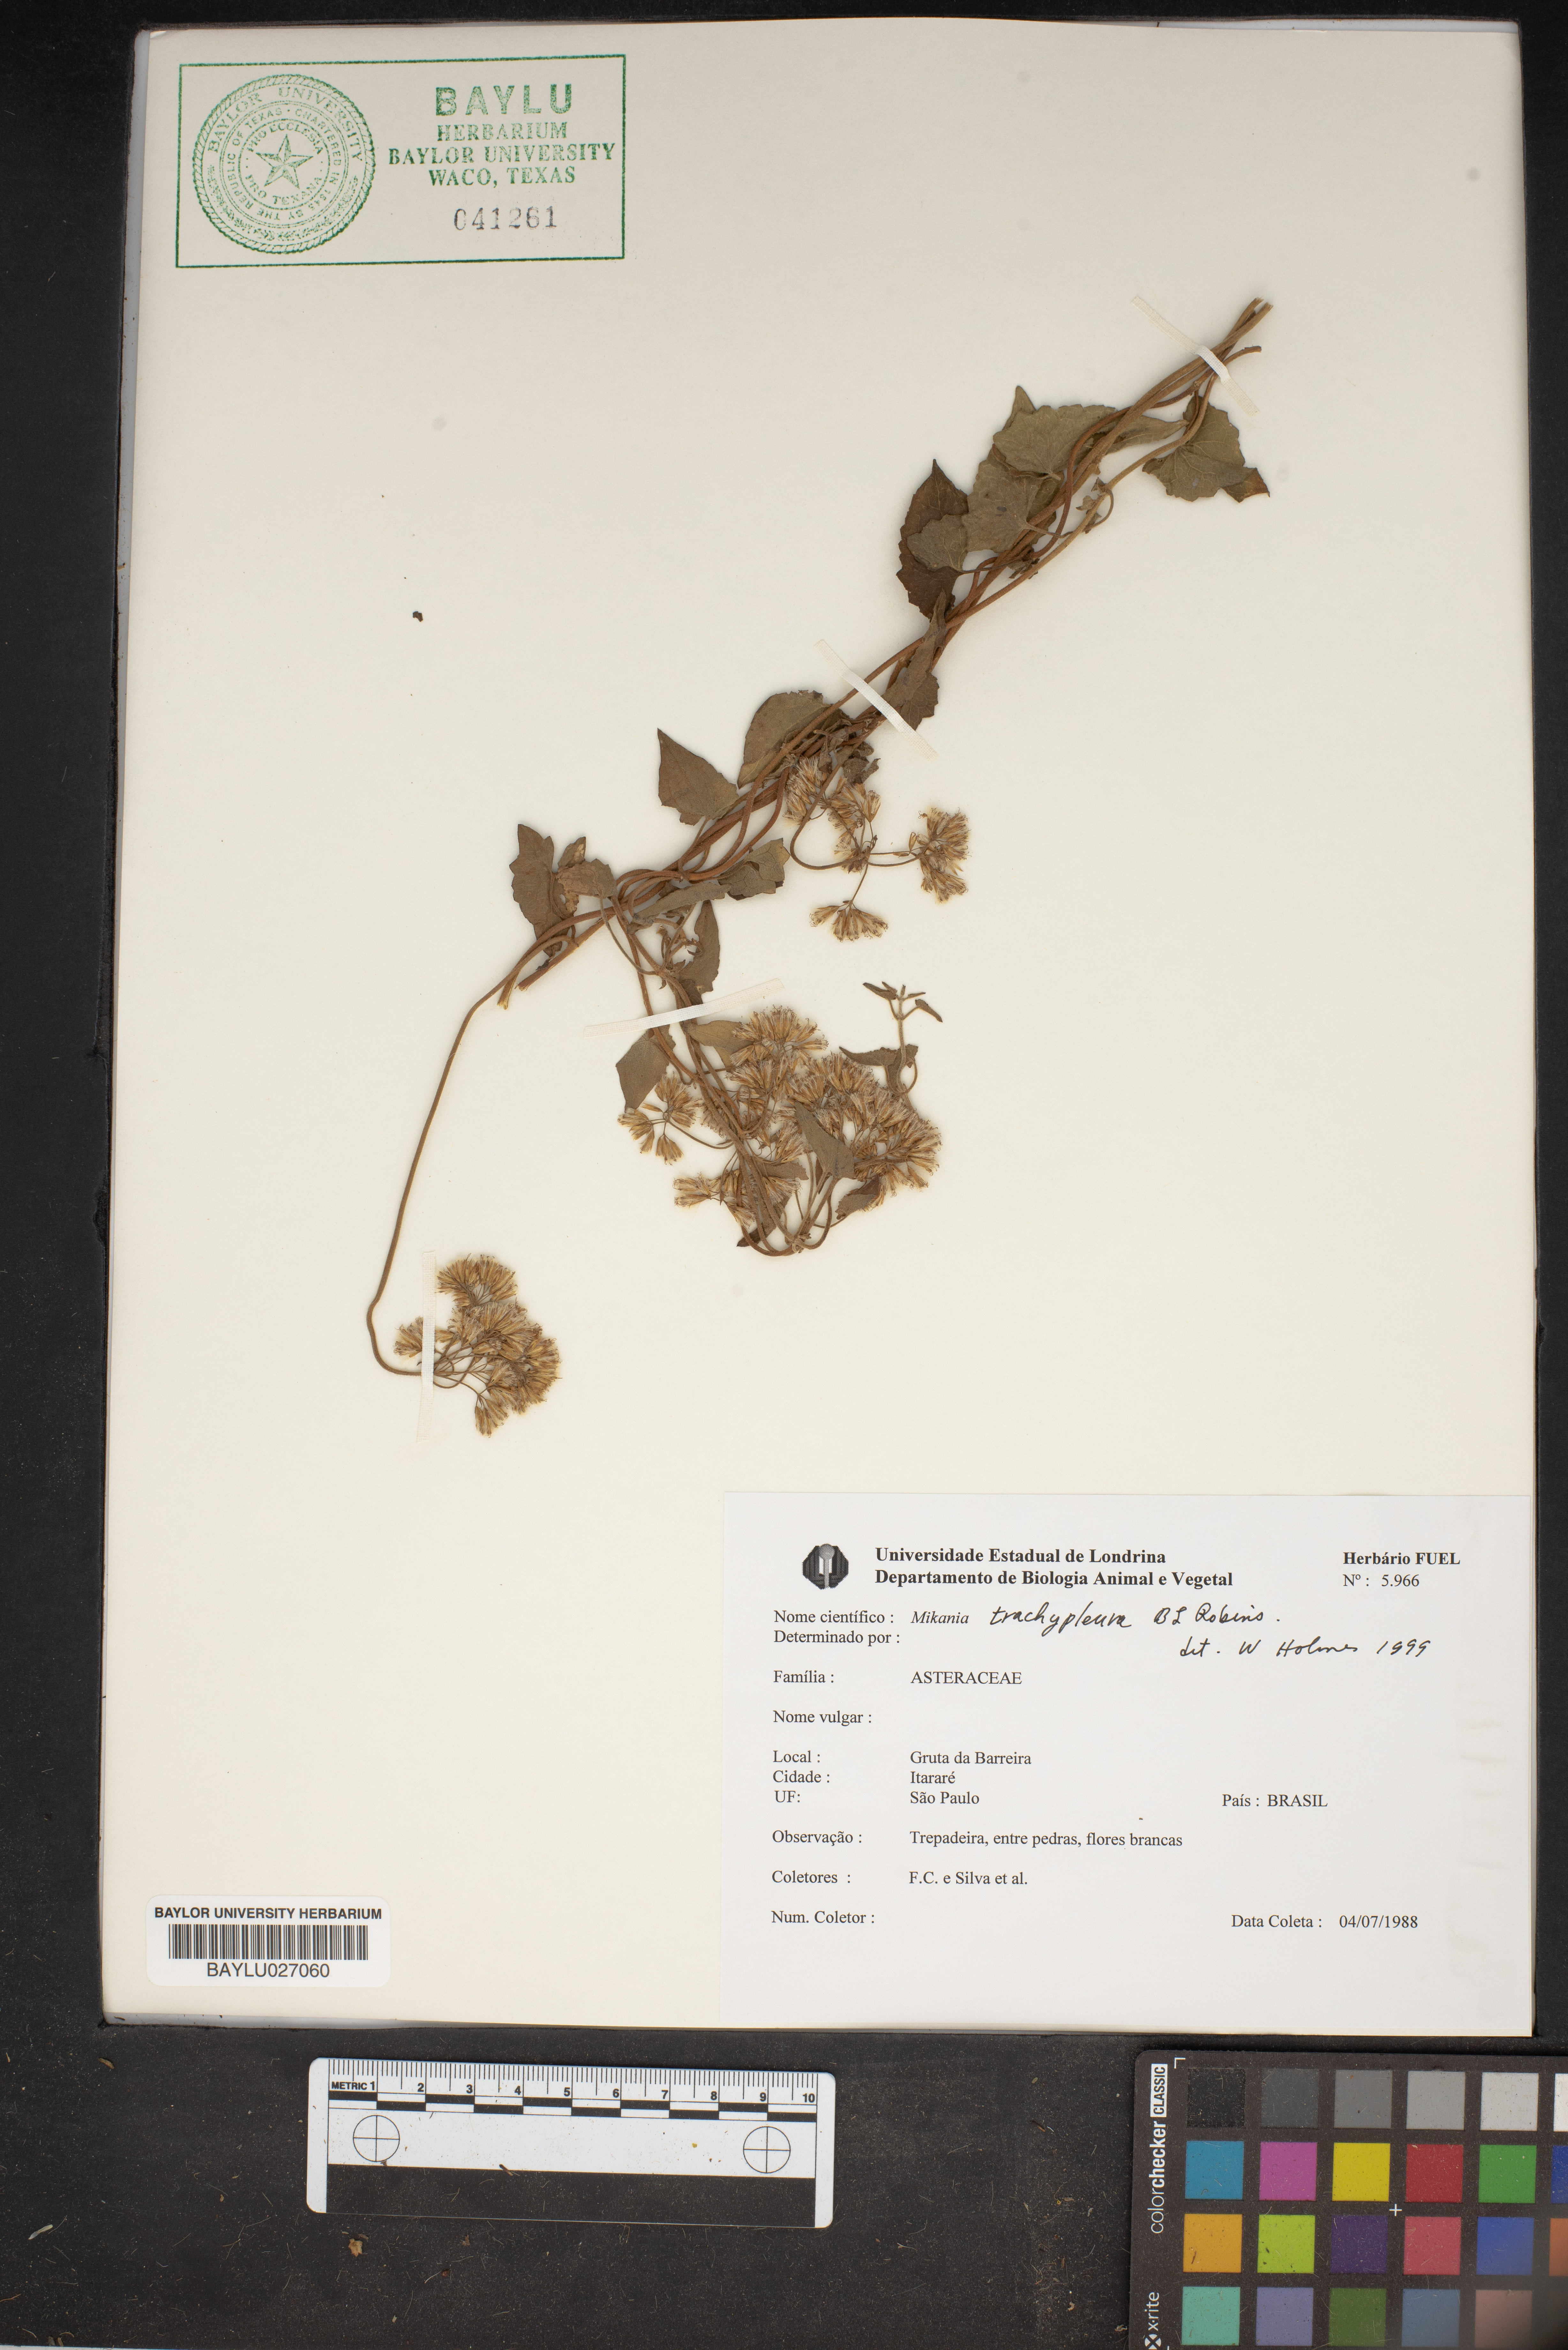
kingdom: Plantae
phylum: Tracheophyta
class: Magnoliopsida
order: Asterales
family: Asteraceae
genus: Mikania
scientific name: Mikania trachypleura
